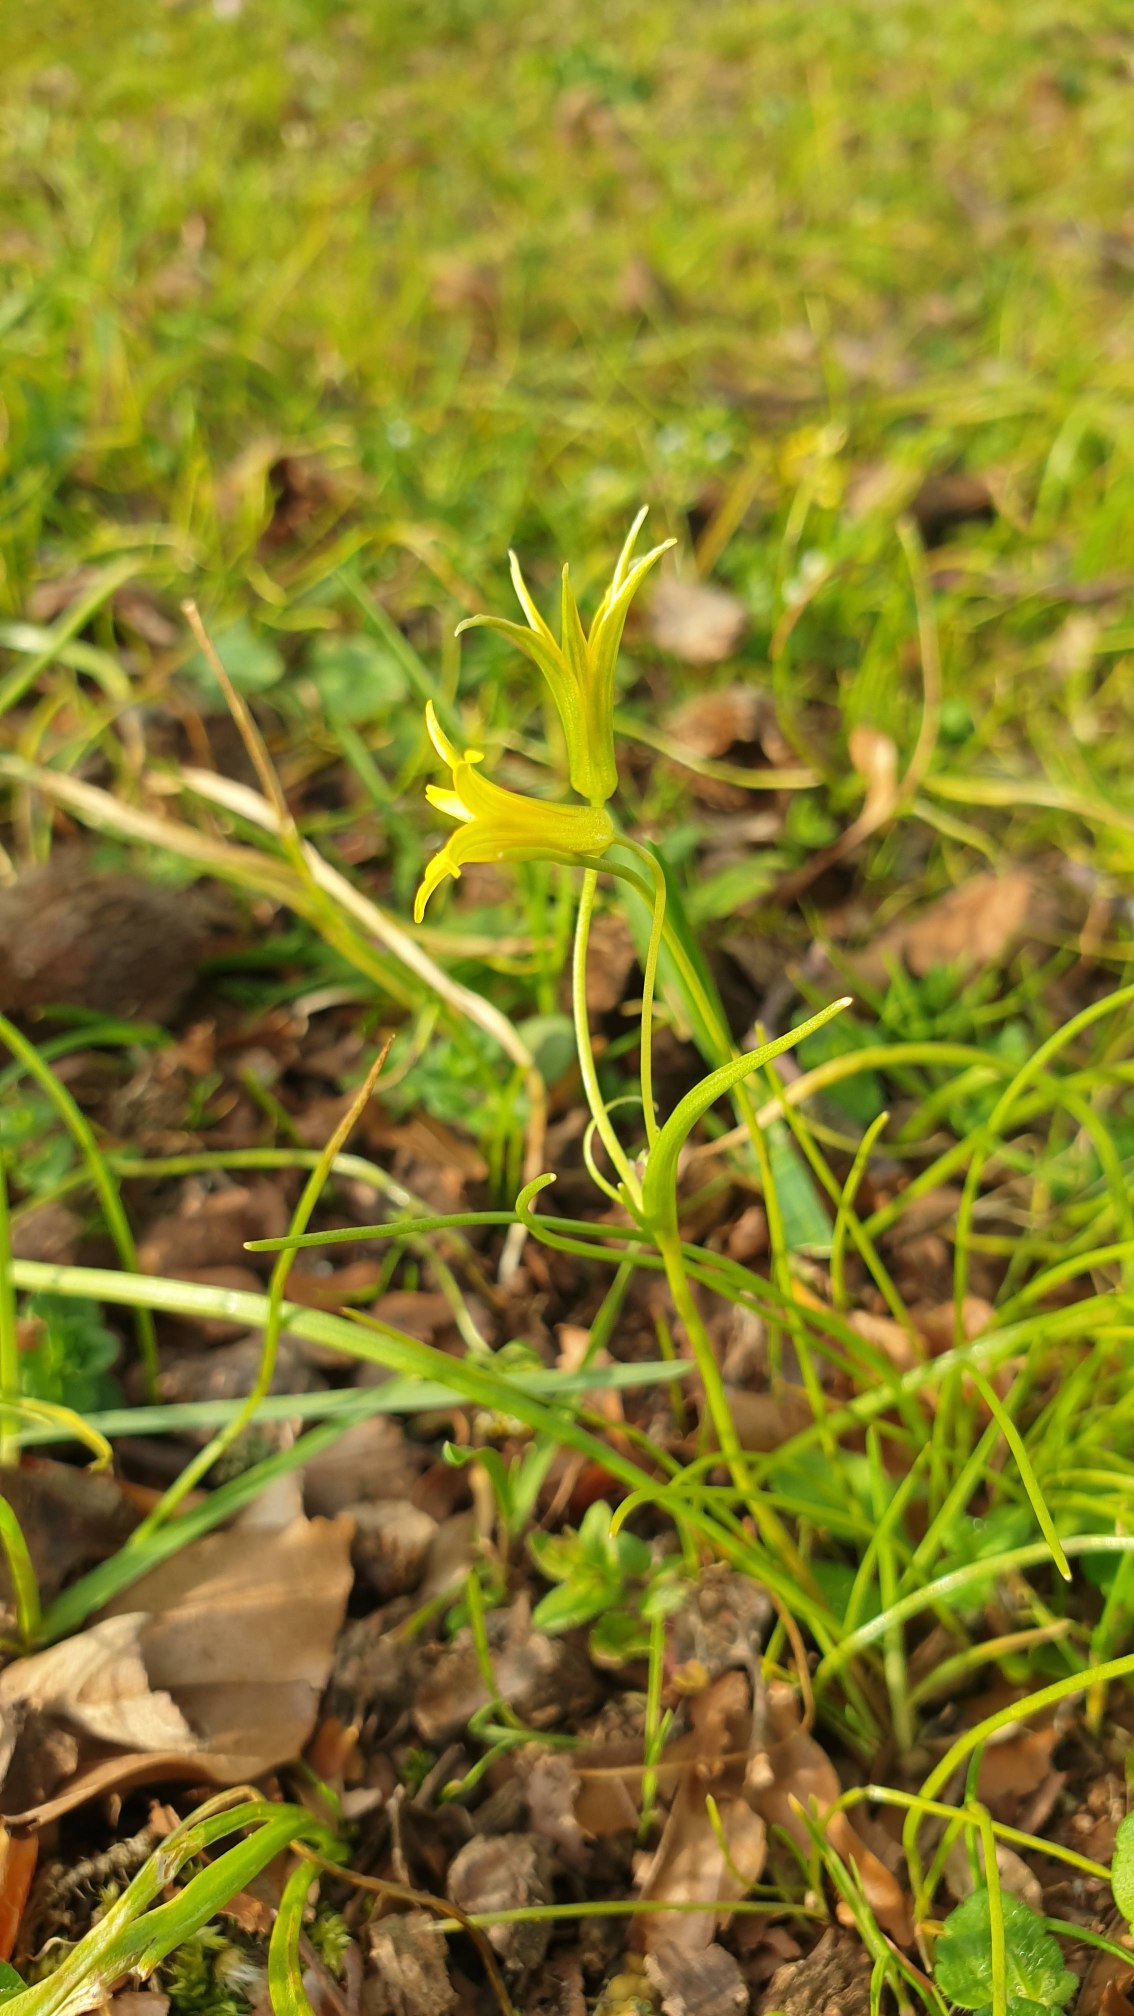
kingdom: Plantae
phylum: Tracheophyta
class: Liliopsida
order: Liliales
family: Liliaceae
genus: Gagea
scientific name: Gagea minima
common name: Liden guldstjerne
